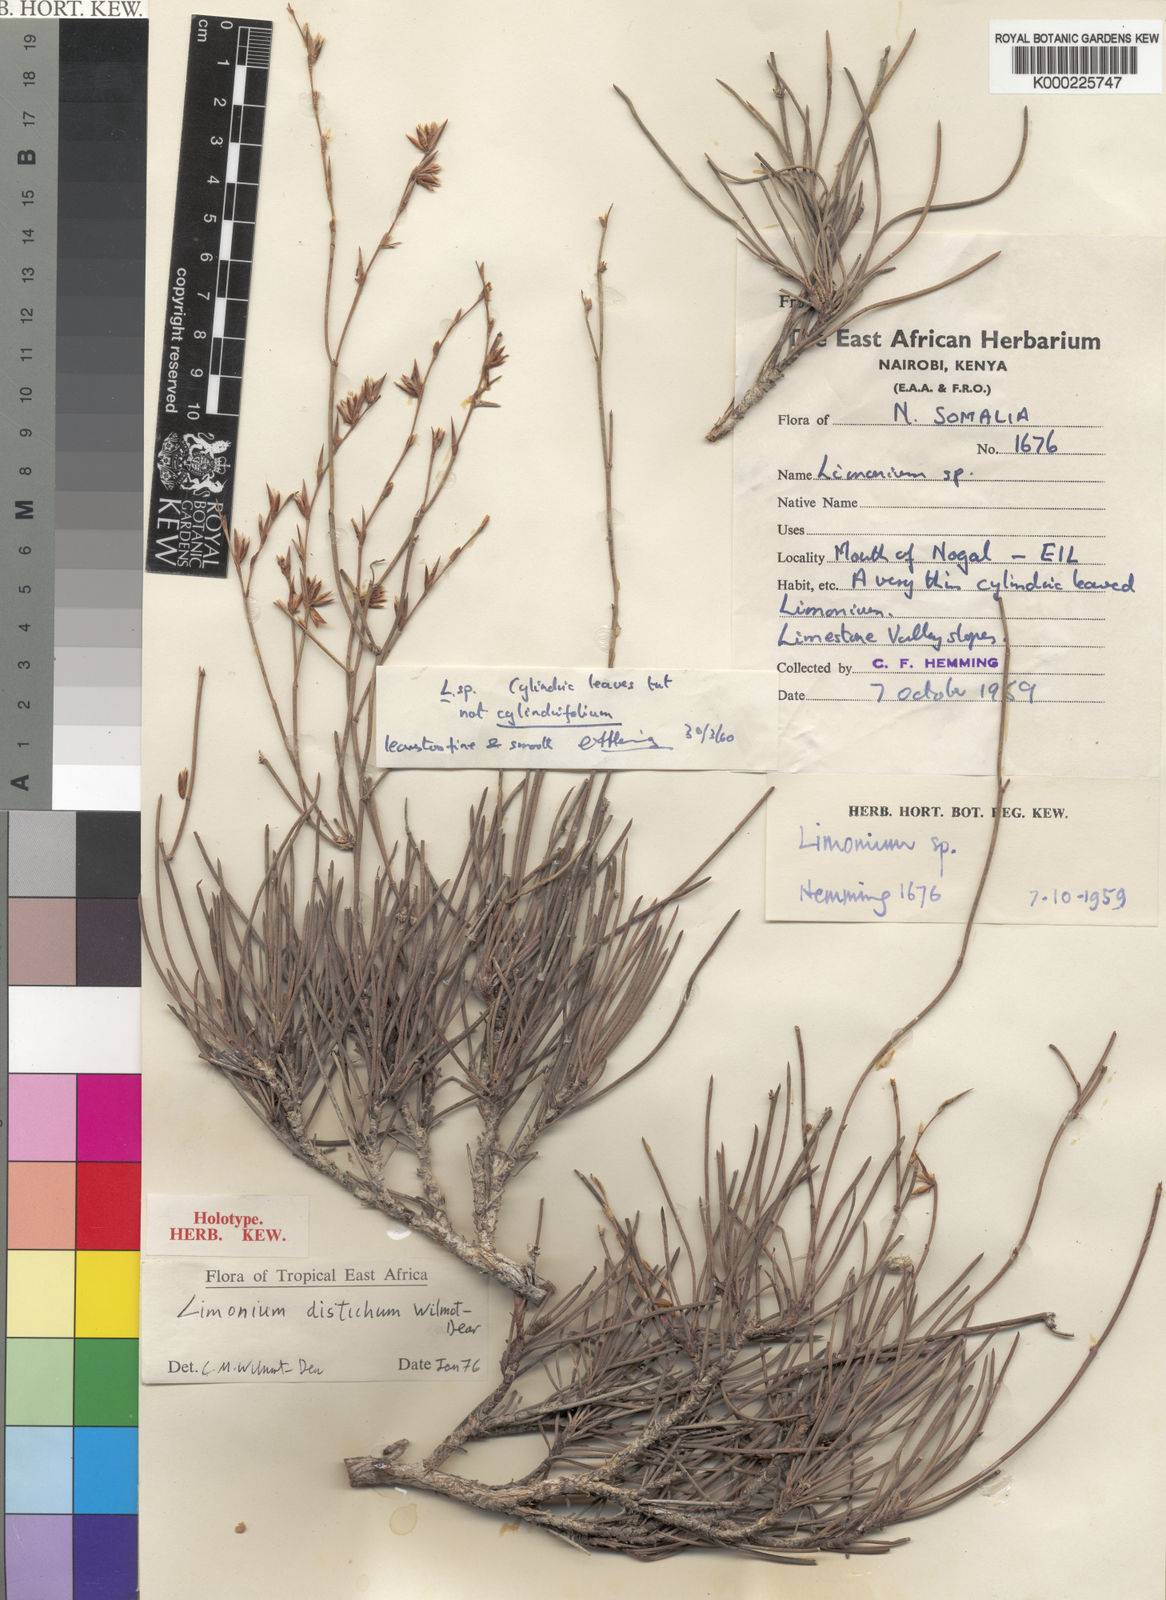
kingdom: Plantae
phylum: Tracheophyta
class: Magnoliopsida
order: Caryophyllales
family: Plumbaginaceae
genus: Limonium
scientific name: Limonium maurocordatae
